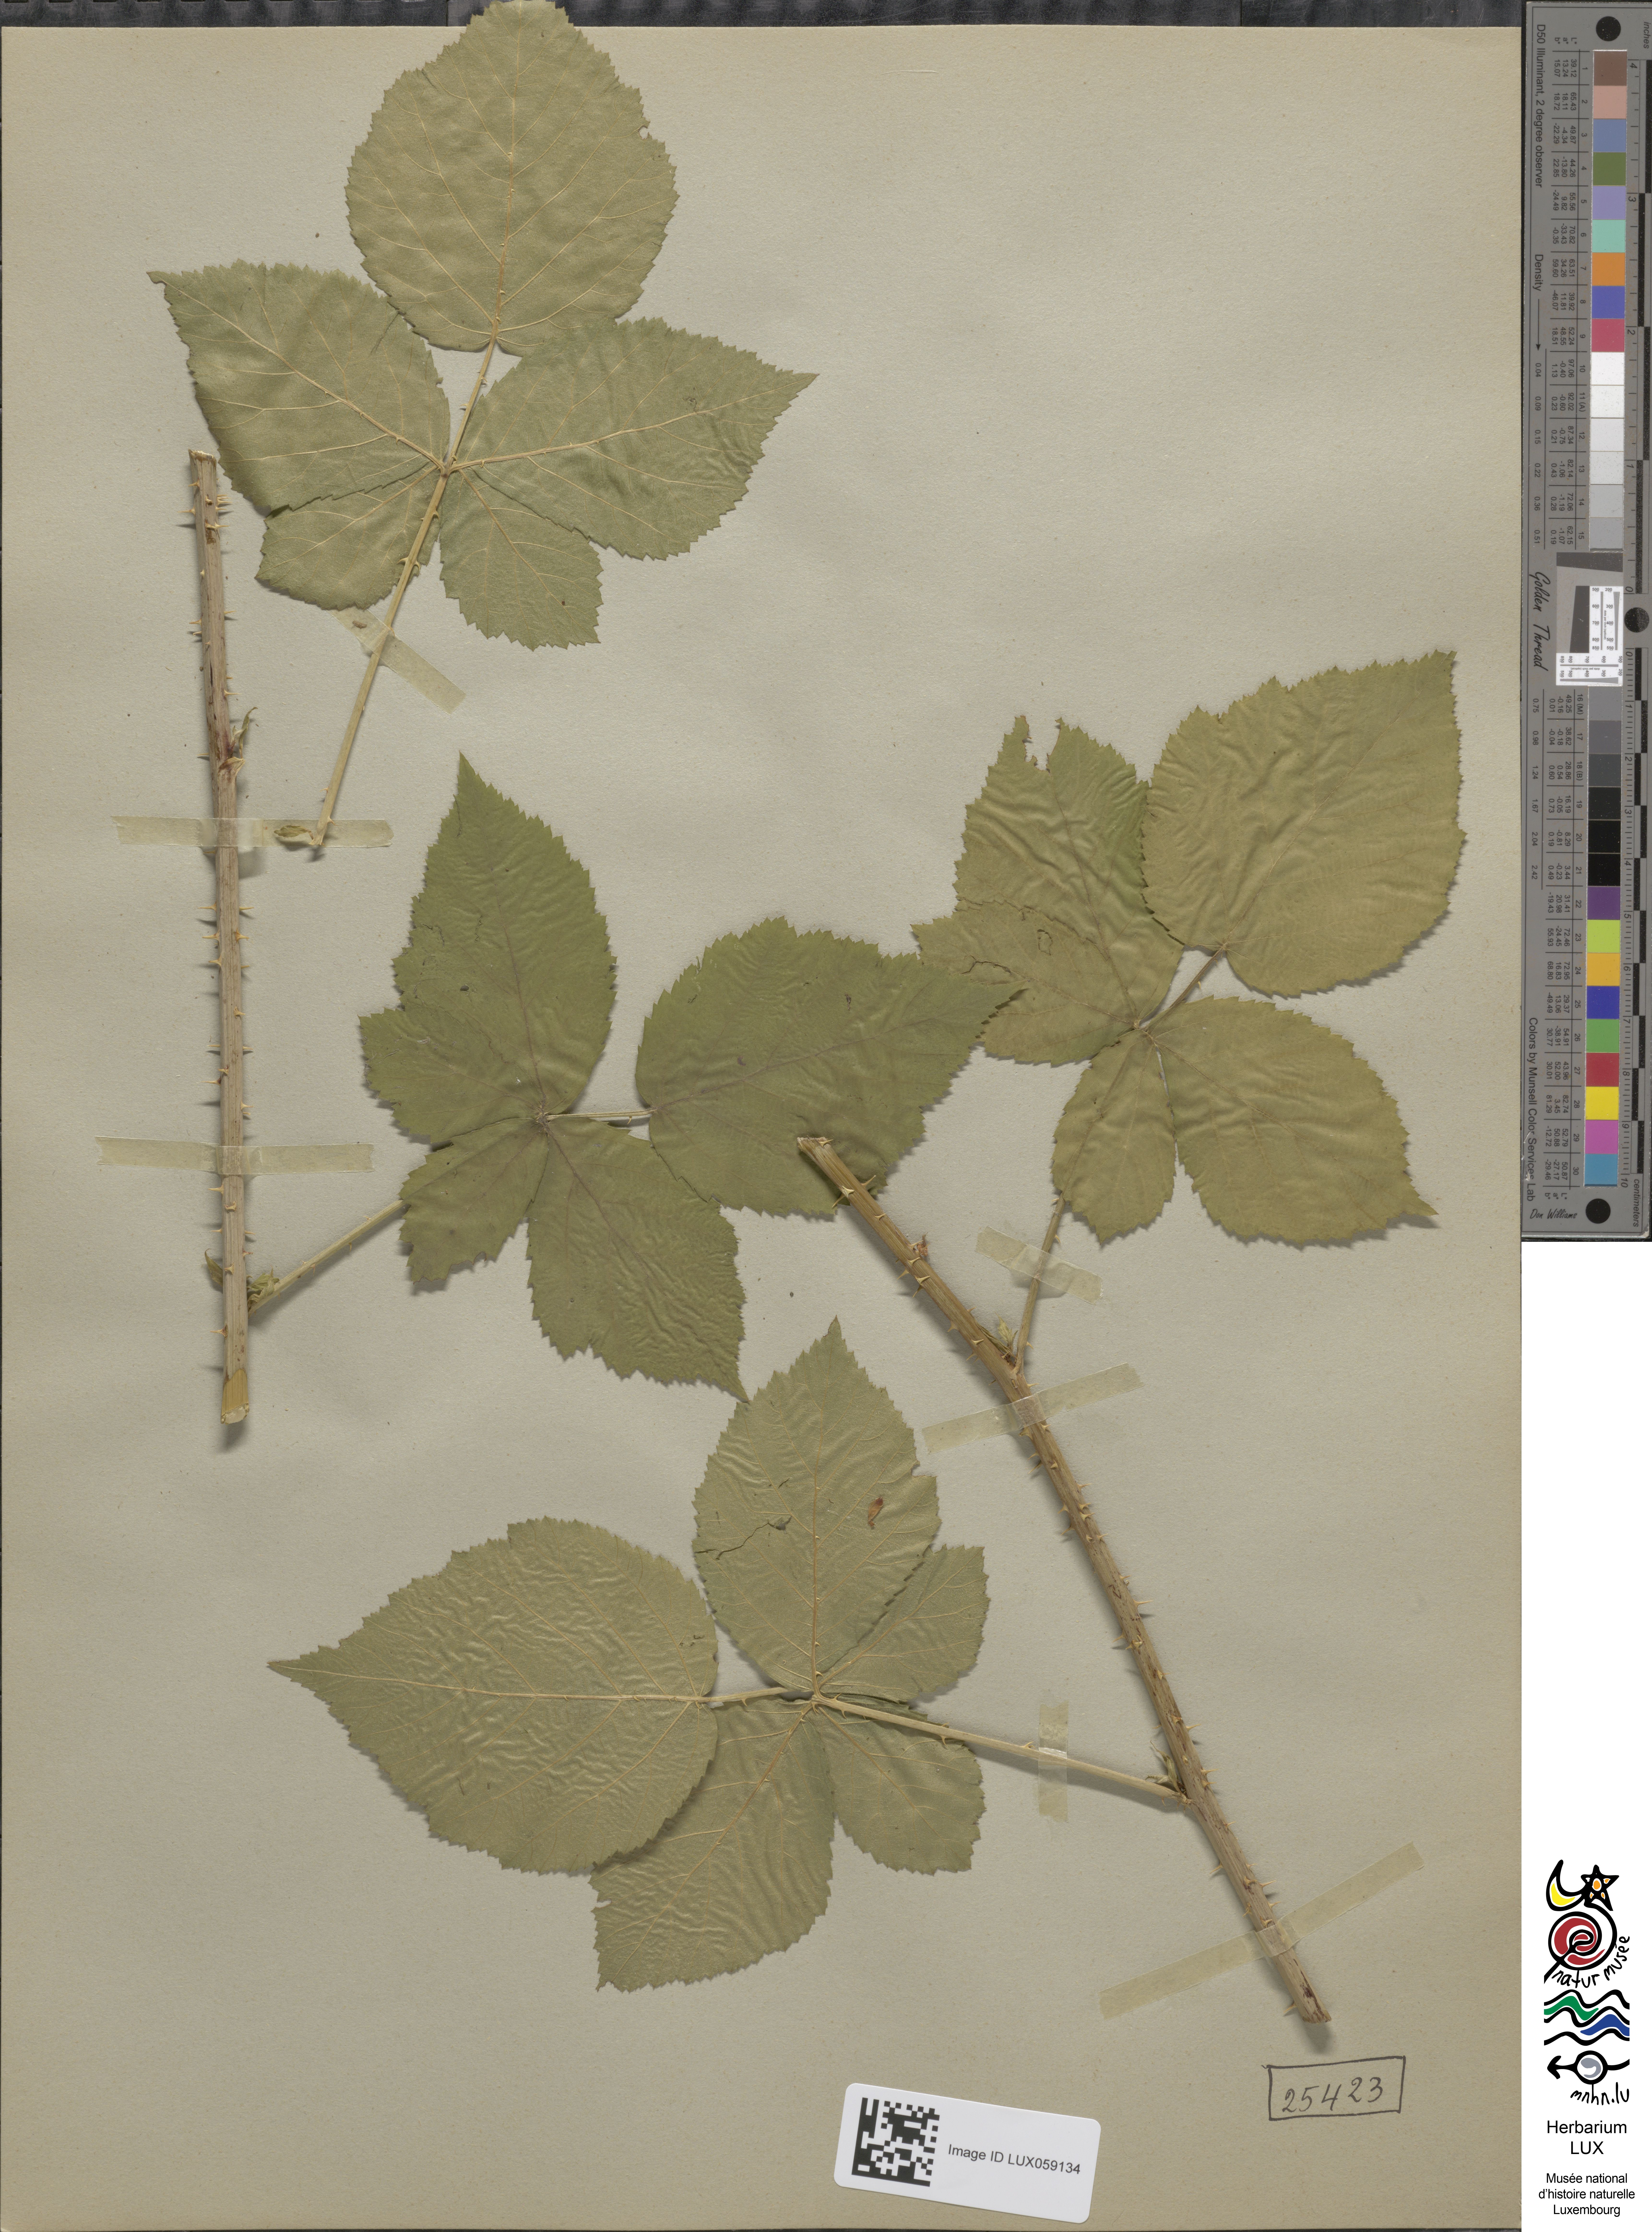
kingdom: Plantae
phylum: Tracheophyta
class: Magnoliopsida
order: Rosales
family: Rosaceae
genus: Rubus
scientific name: Rubus
